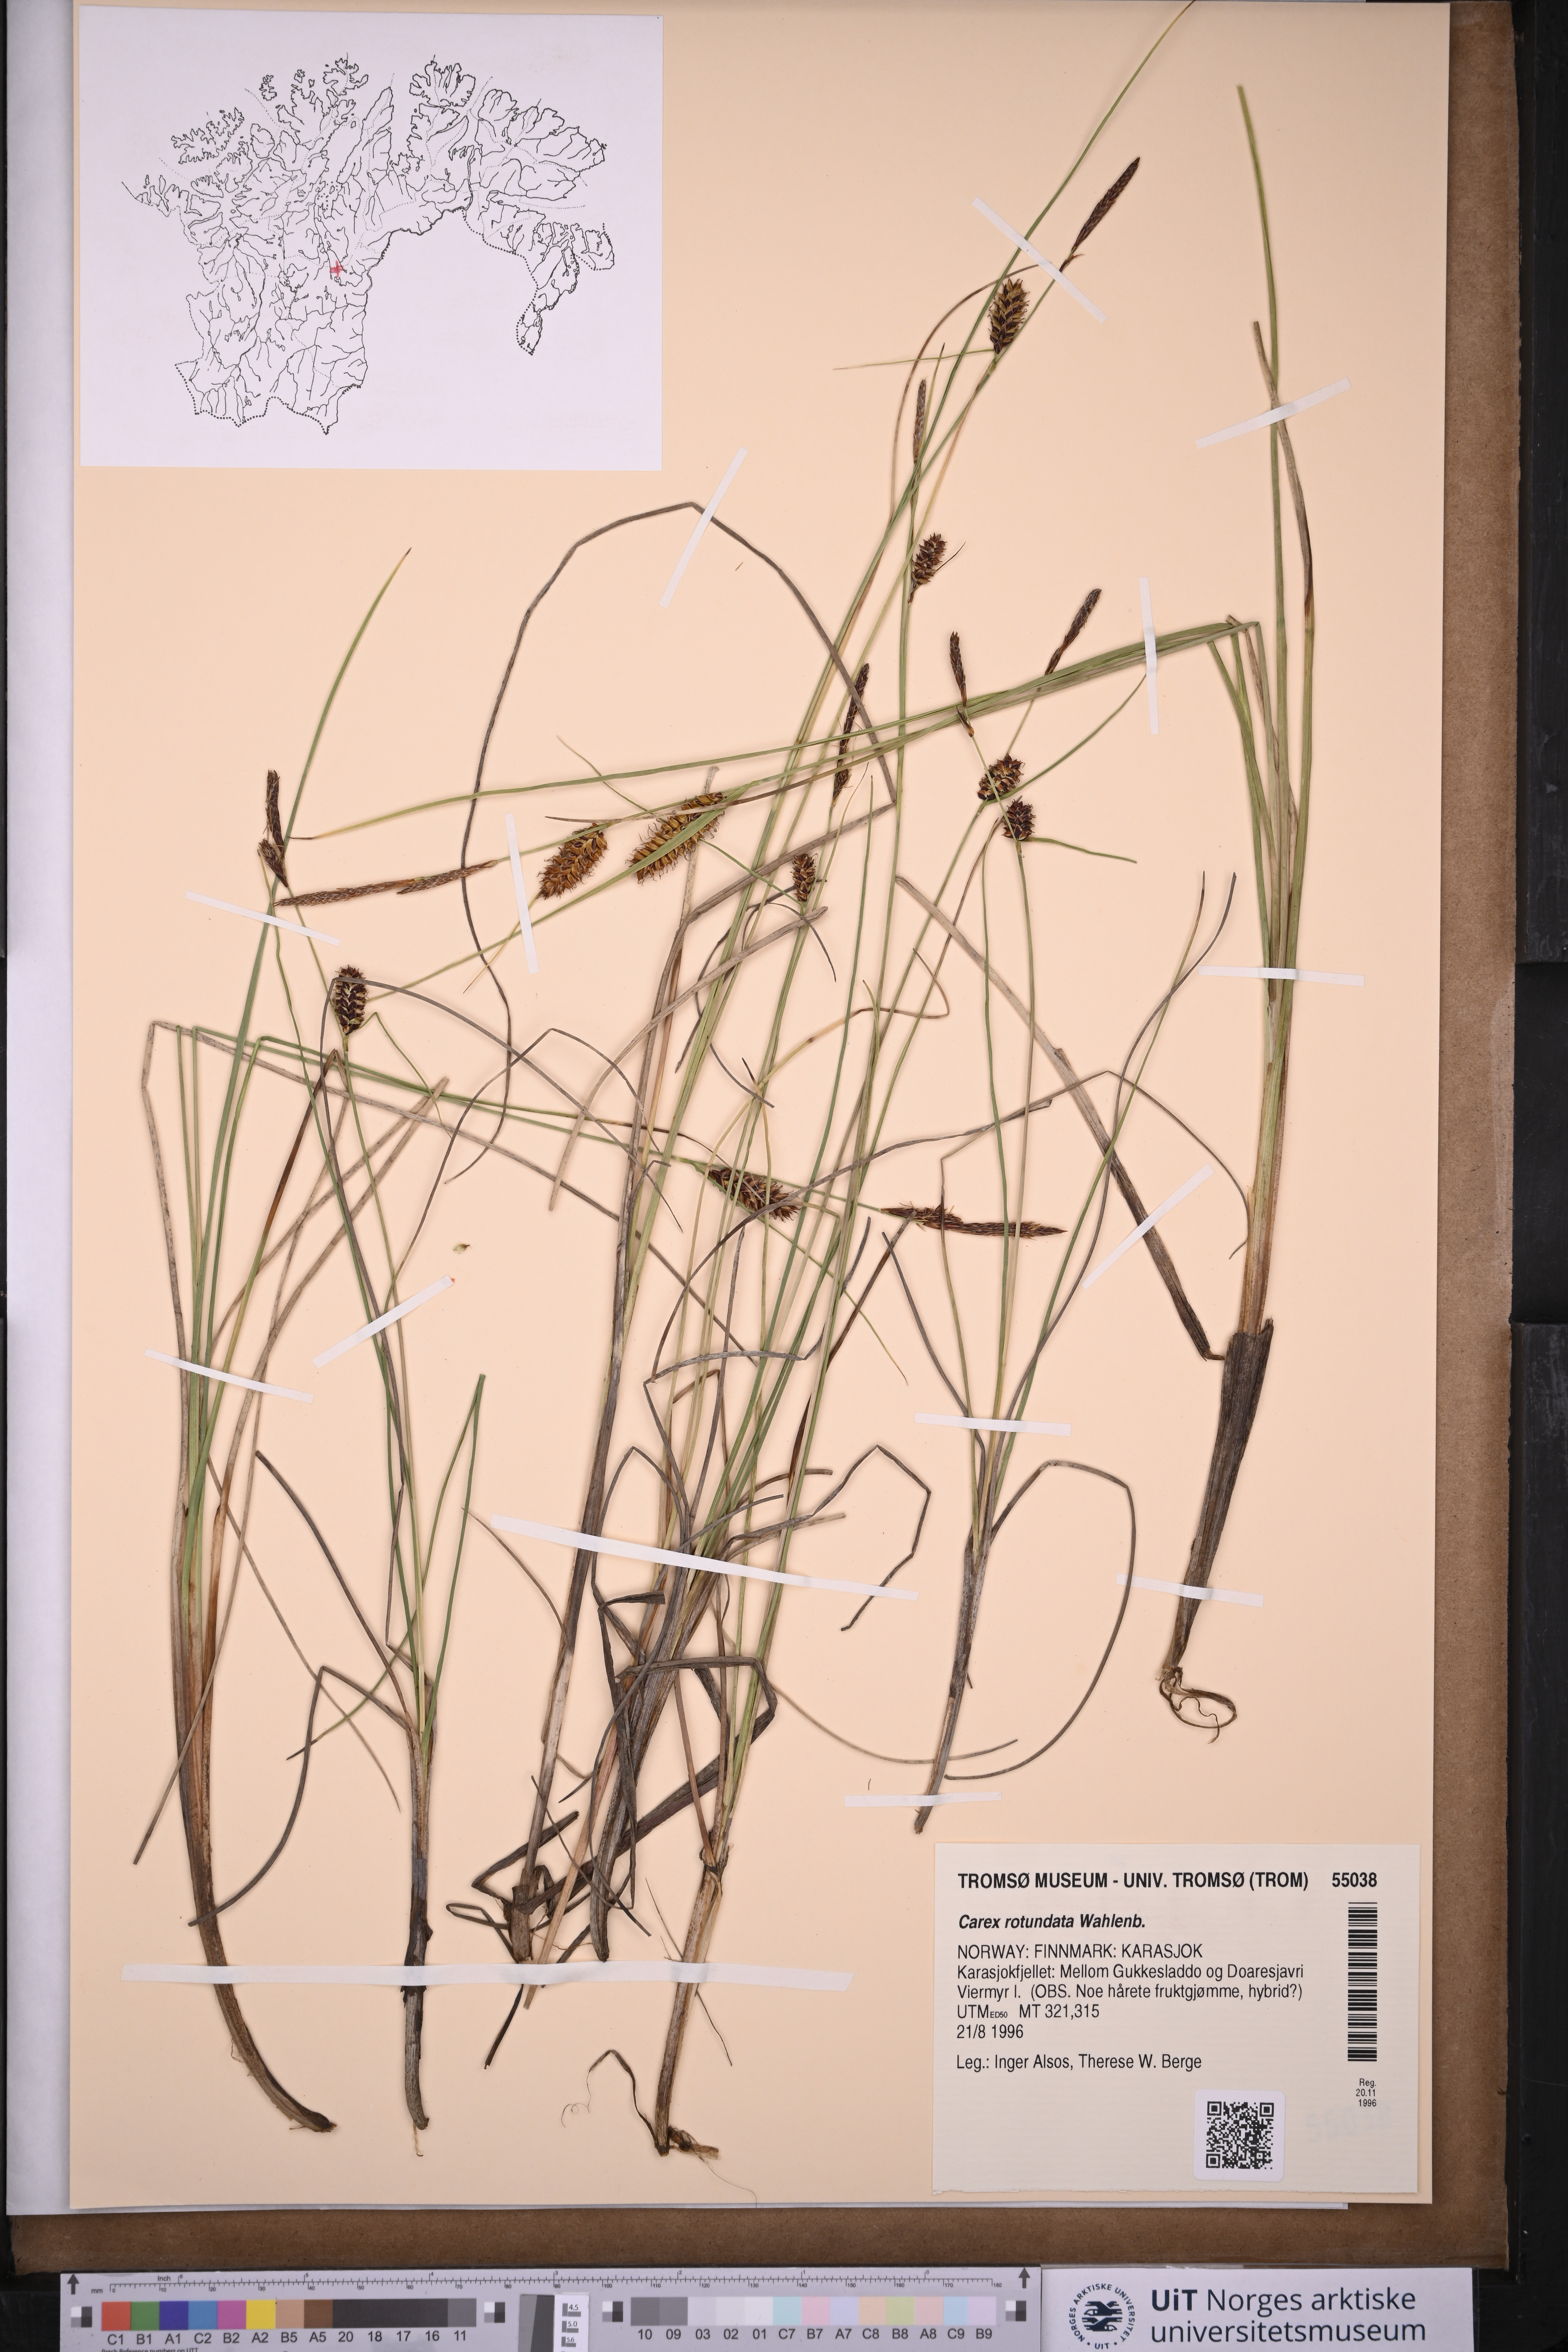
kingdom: Plantae
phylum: Tracheophyta
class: Liliopsida
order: Poales
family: Cyperaceae
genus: Carex
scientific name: Carex rotundata
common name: Round-fruited sedge
